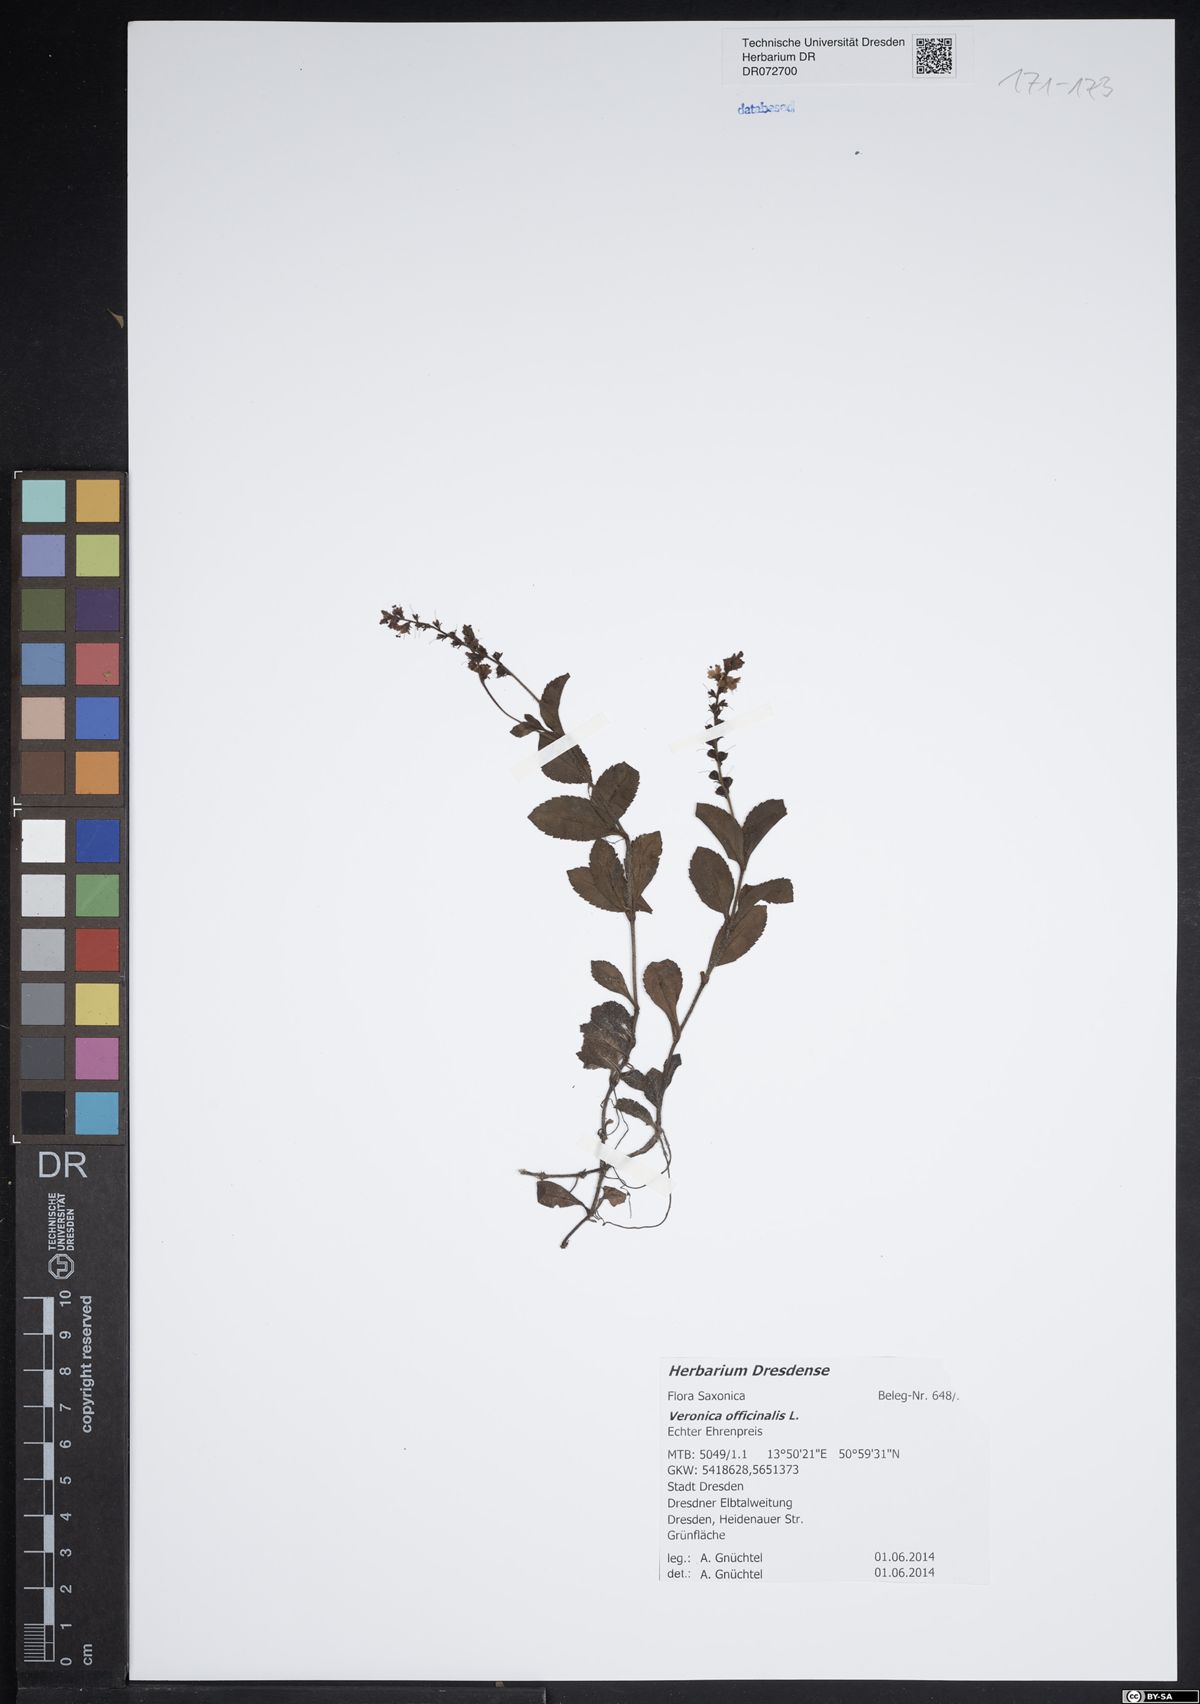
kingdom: Plantae
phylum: Tracheophyta
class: Magnoliopsida
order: Lamiales
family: Plantaginaceae
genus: Veronica
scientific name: Veronica officinalis
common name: Common speedwell
